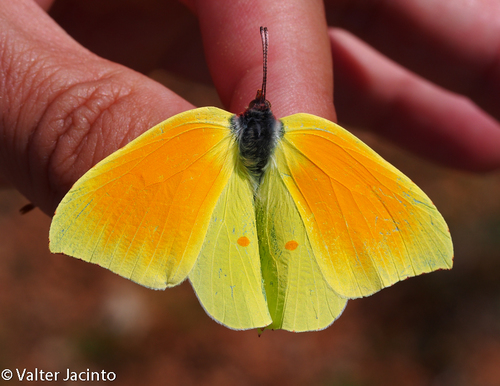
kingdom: Animalia
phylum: Arthropoda
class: Insecta
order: Lepidoptera
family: Pieridae
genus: Gonepteryx
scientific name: Gonepteryx cleopatra
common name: Cleopatra
